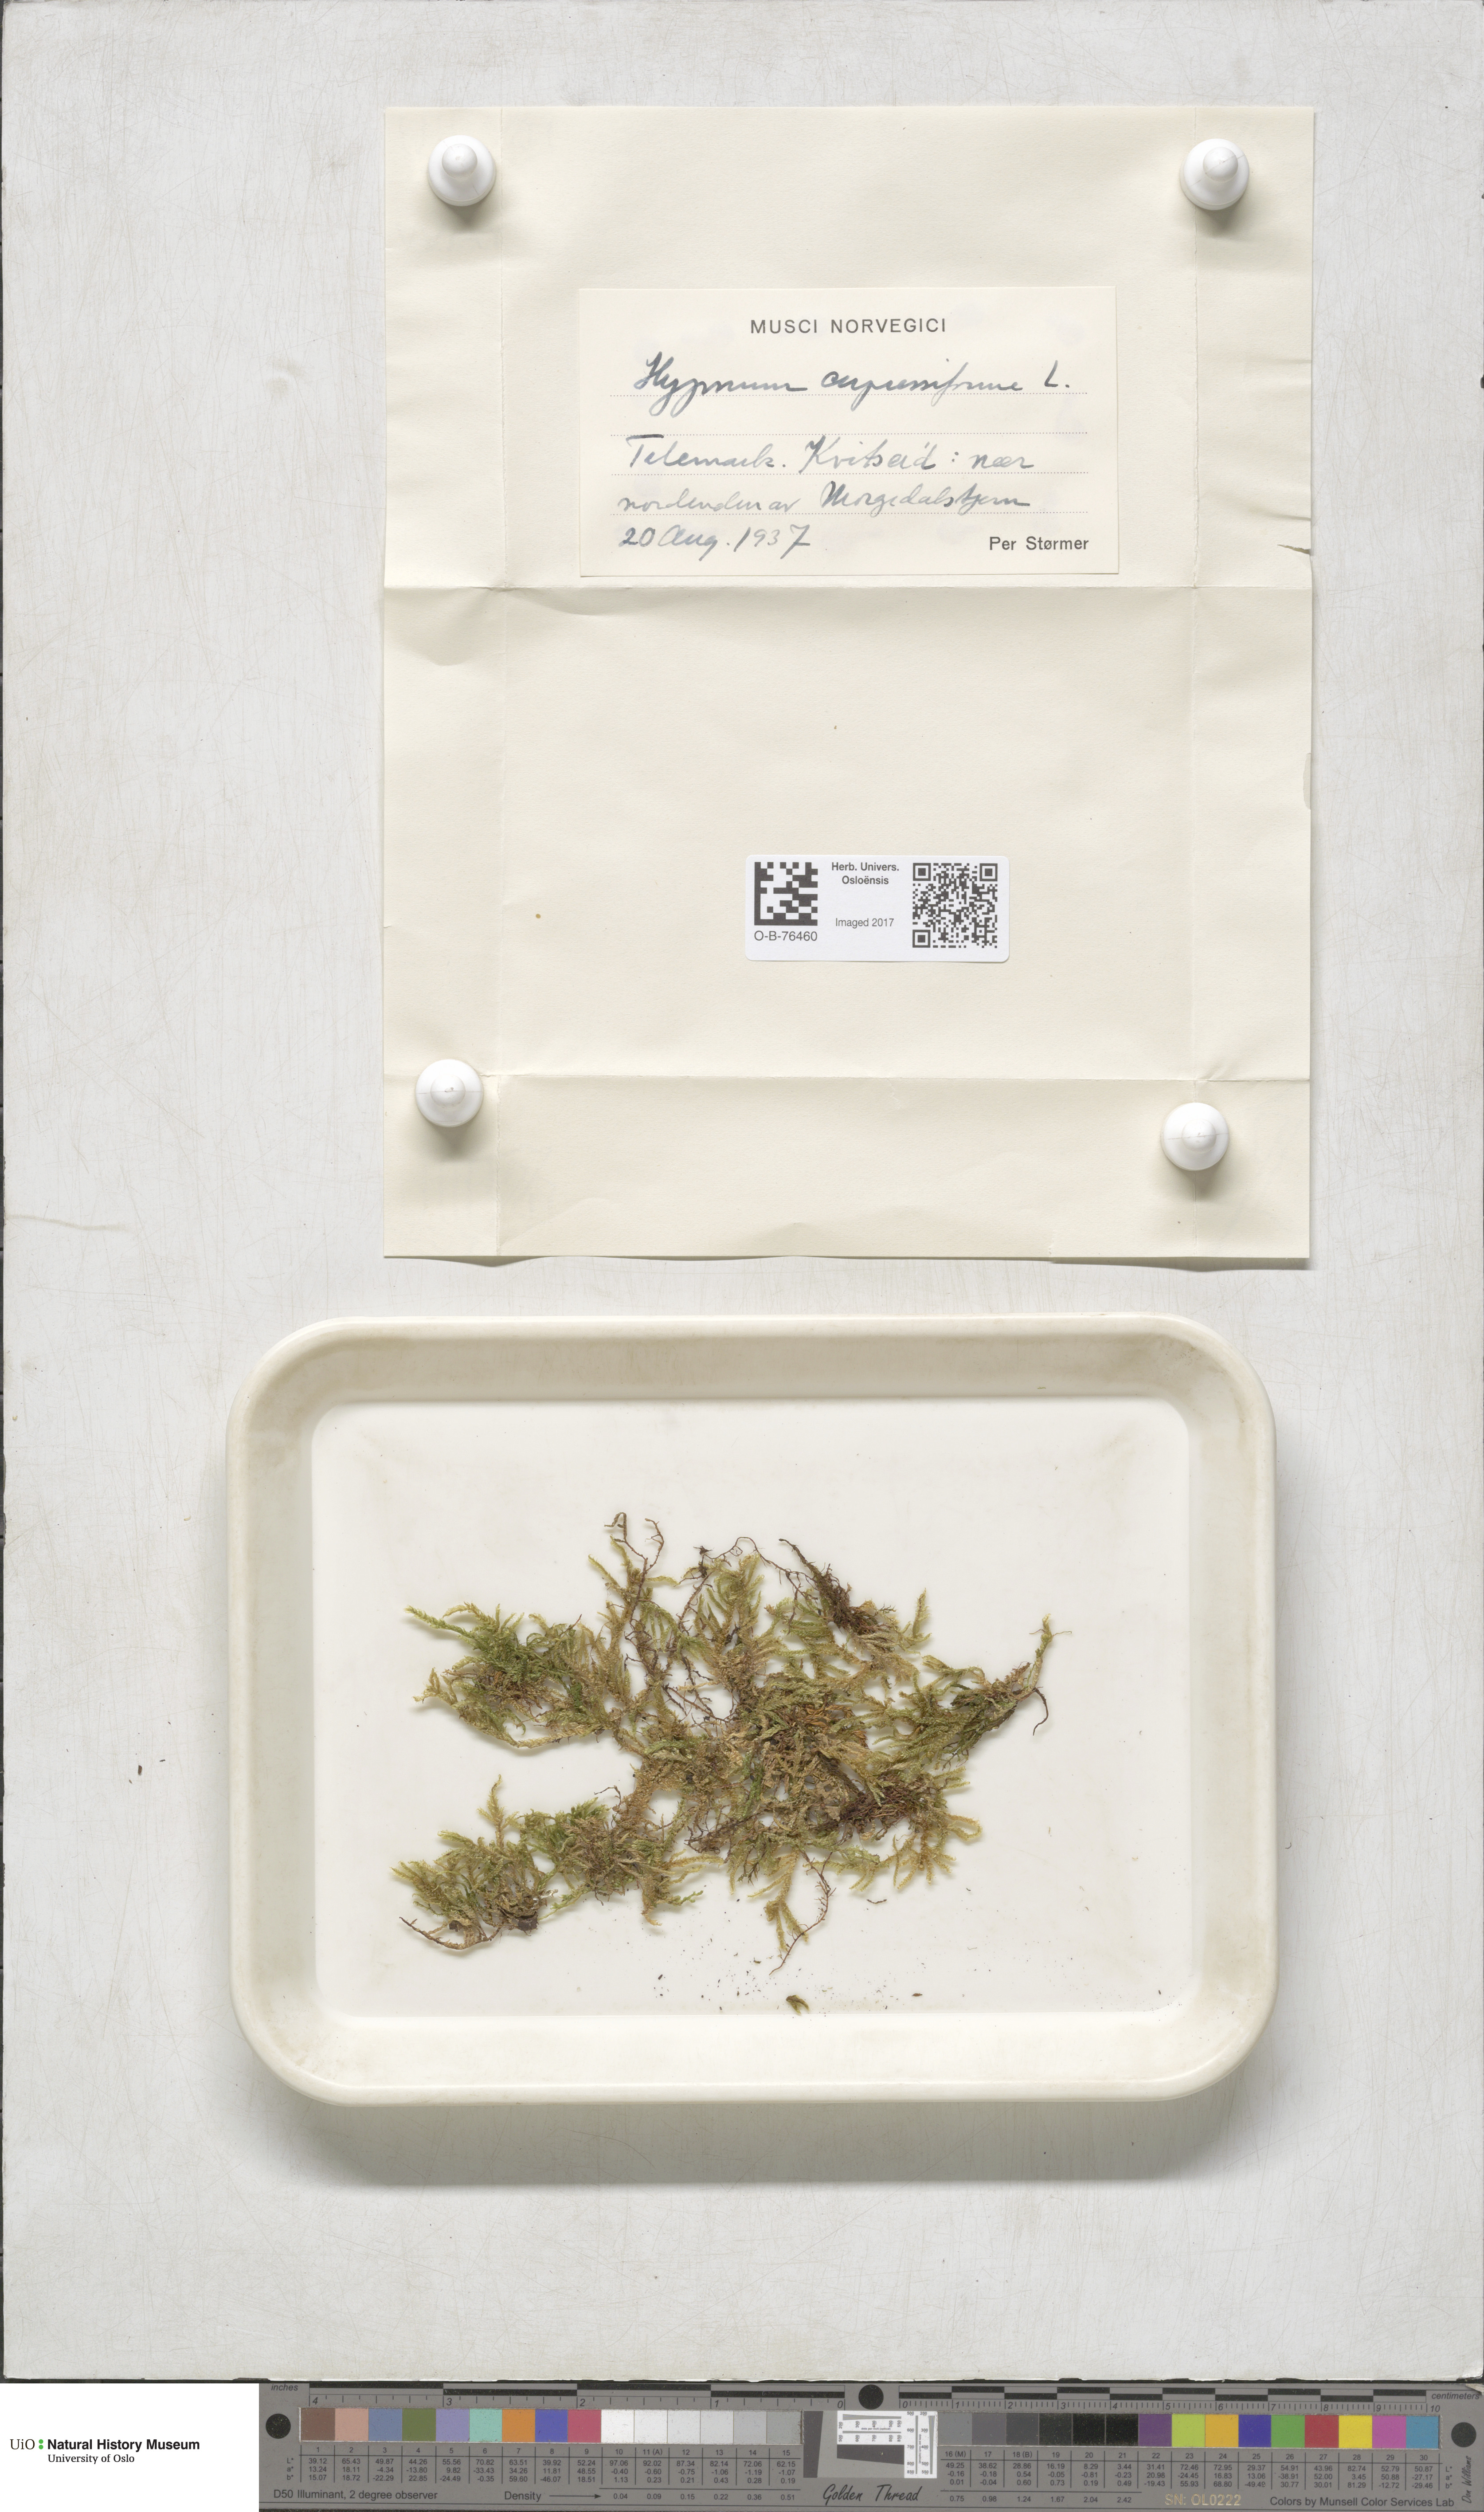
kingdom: Plantae
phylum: Bryophyta
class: Bryopsida
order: Hypnales
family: Hypnaceae
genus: Hypnum
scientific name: Hypnum cupressiforme
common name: Cypress-leaved plait-moss
